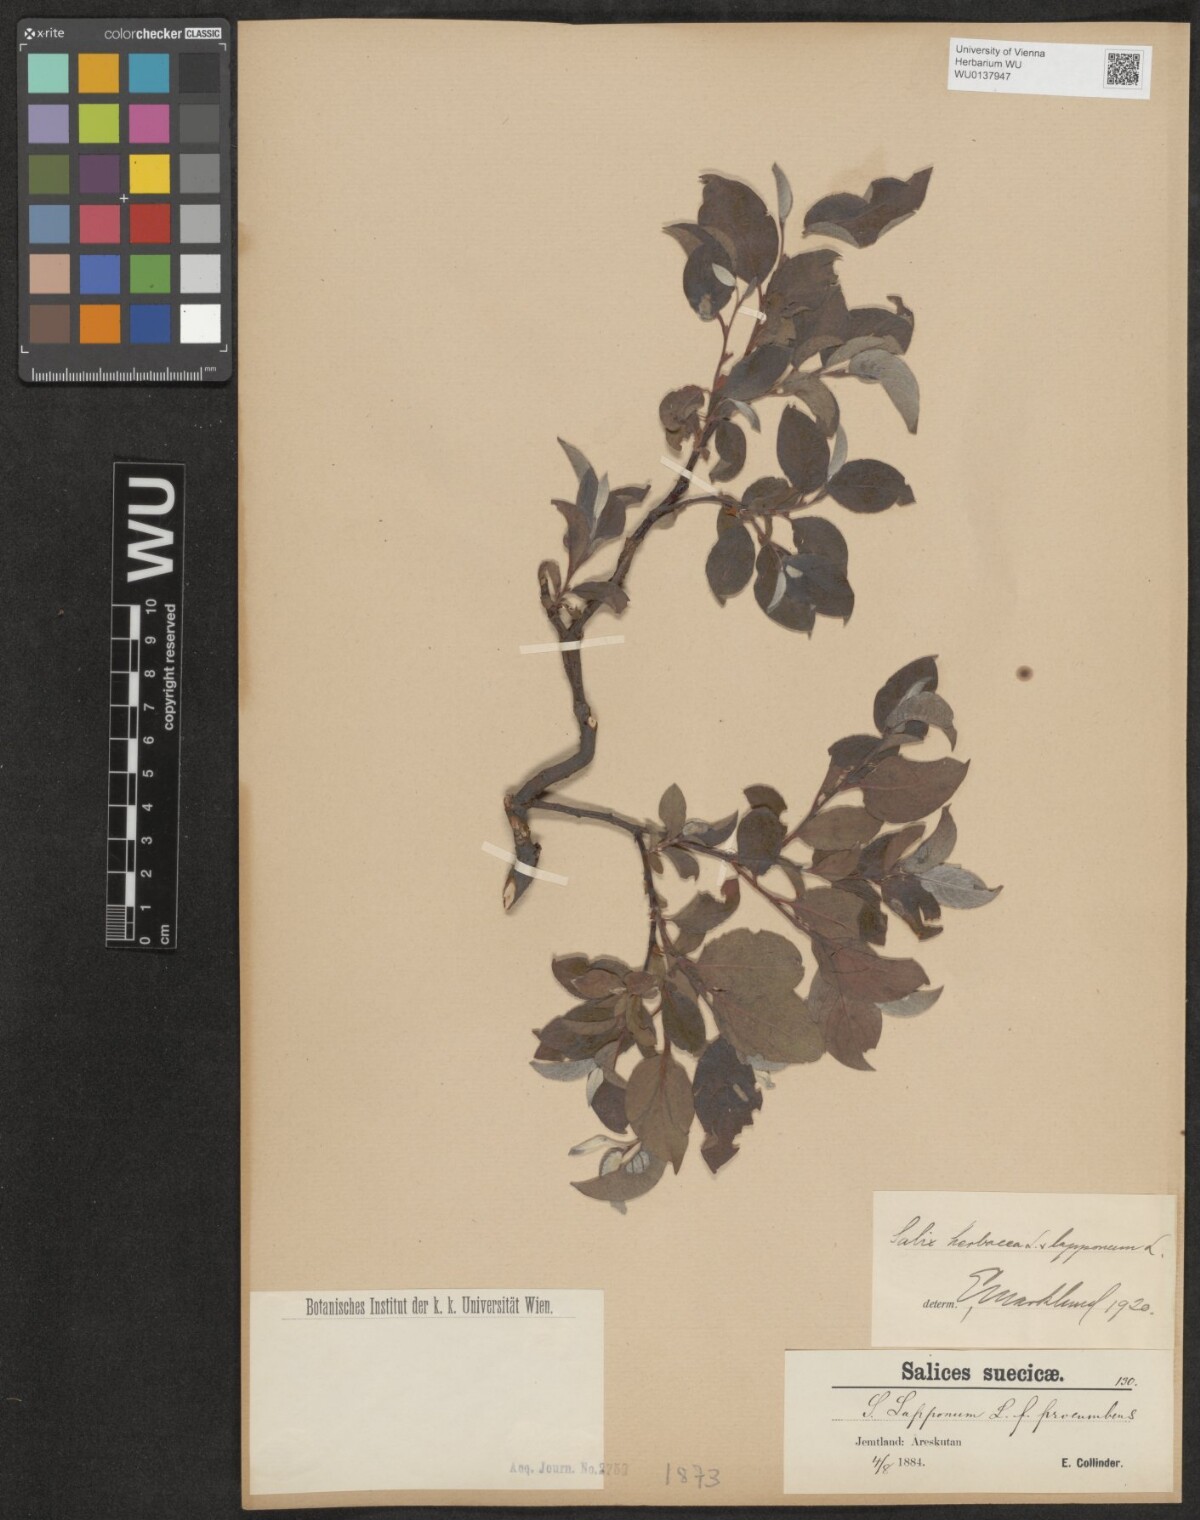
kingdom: Plantae
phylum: Tracheophyta
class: Magnoliopsida
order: Malpighiales
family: Salicaceae
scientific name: Salicaceae
